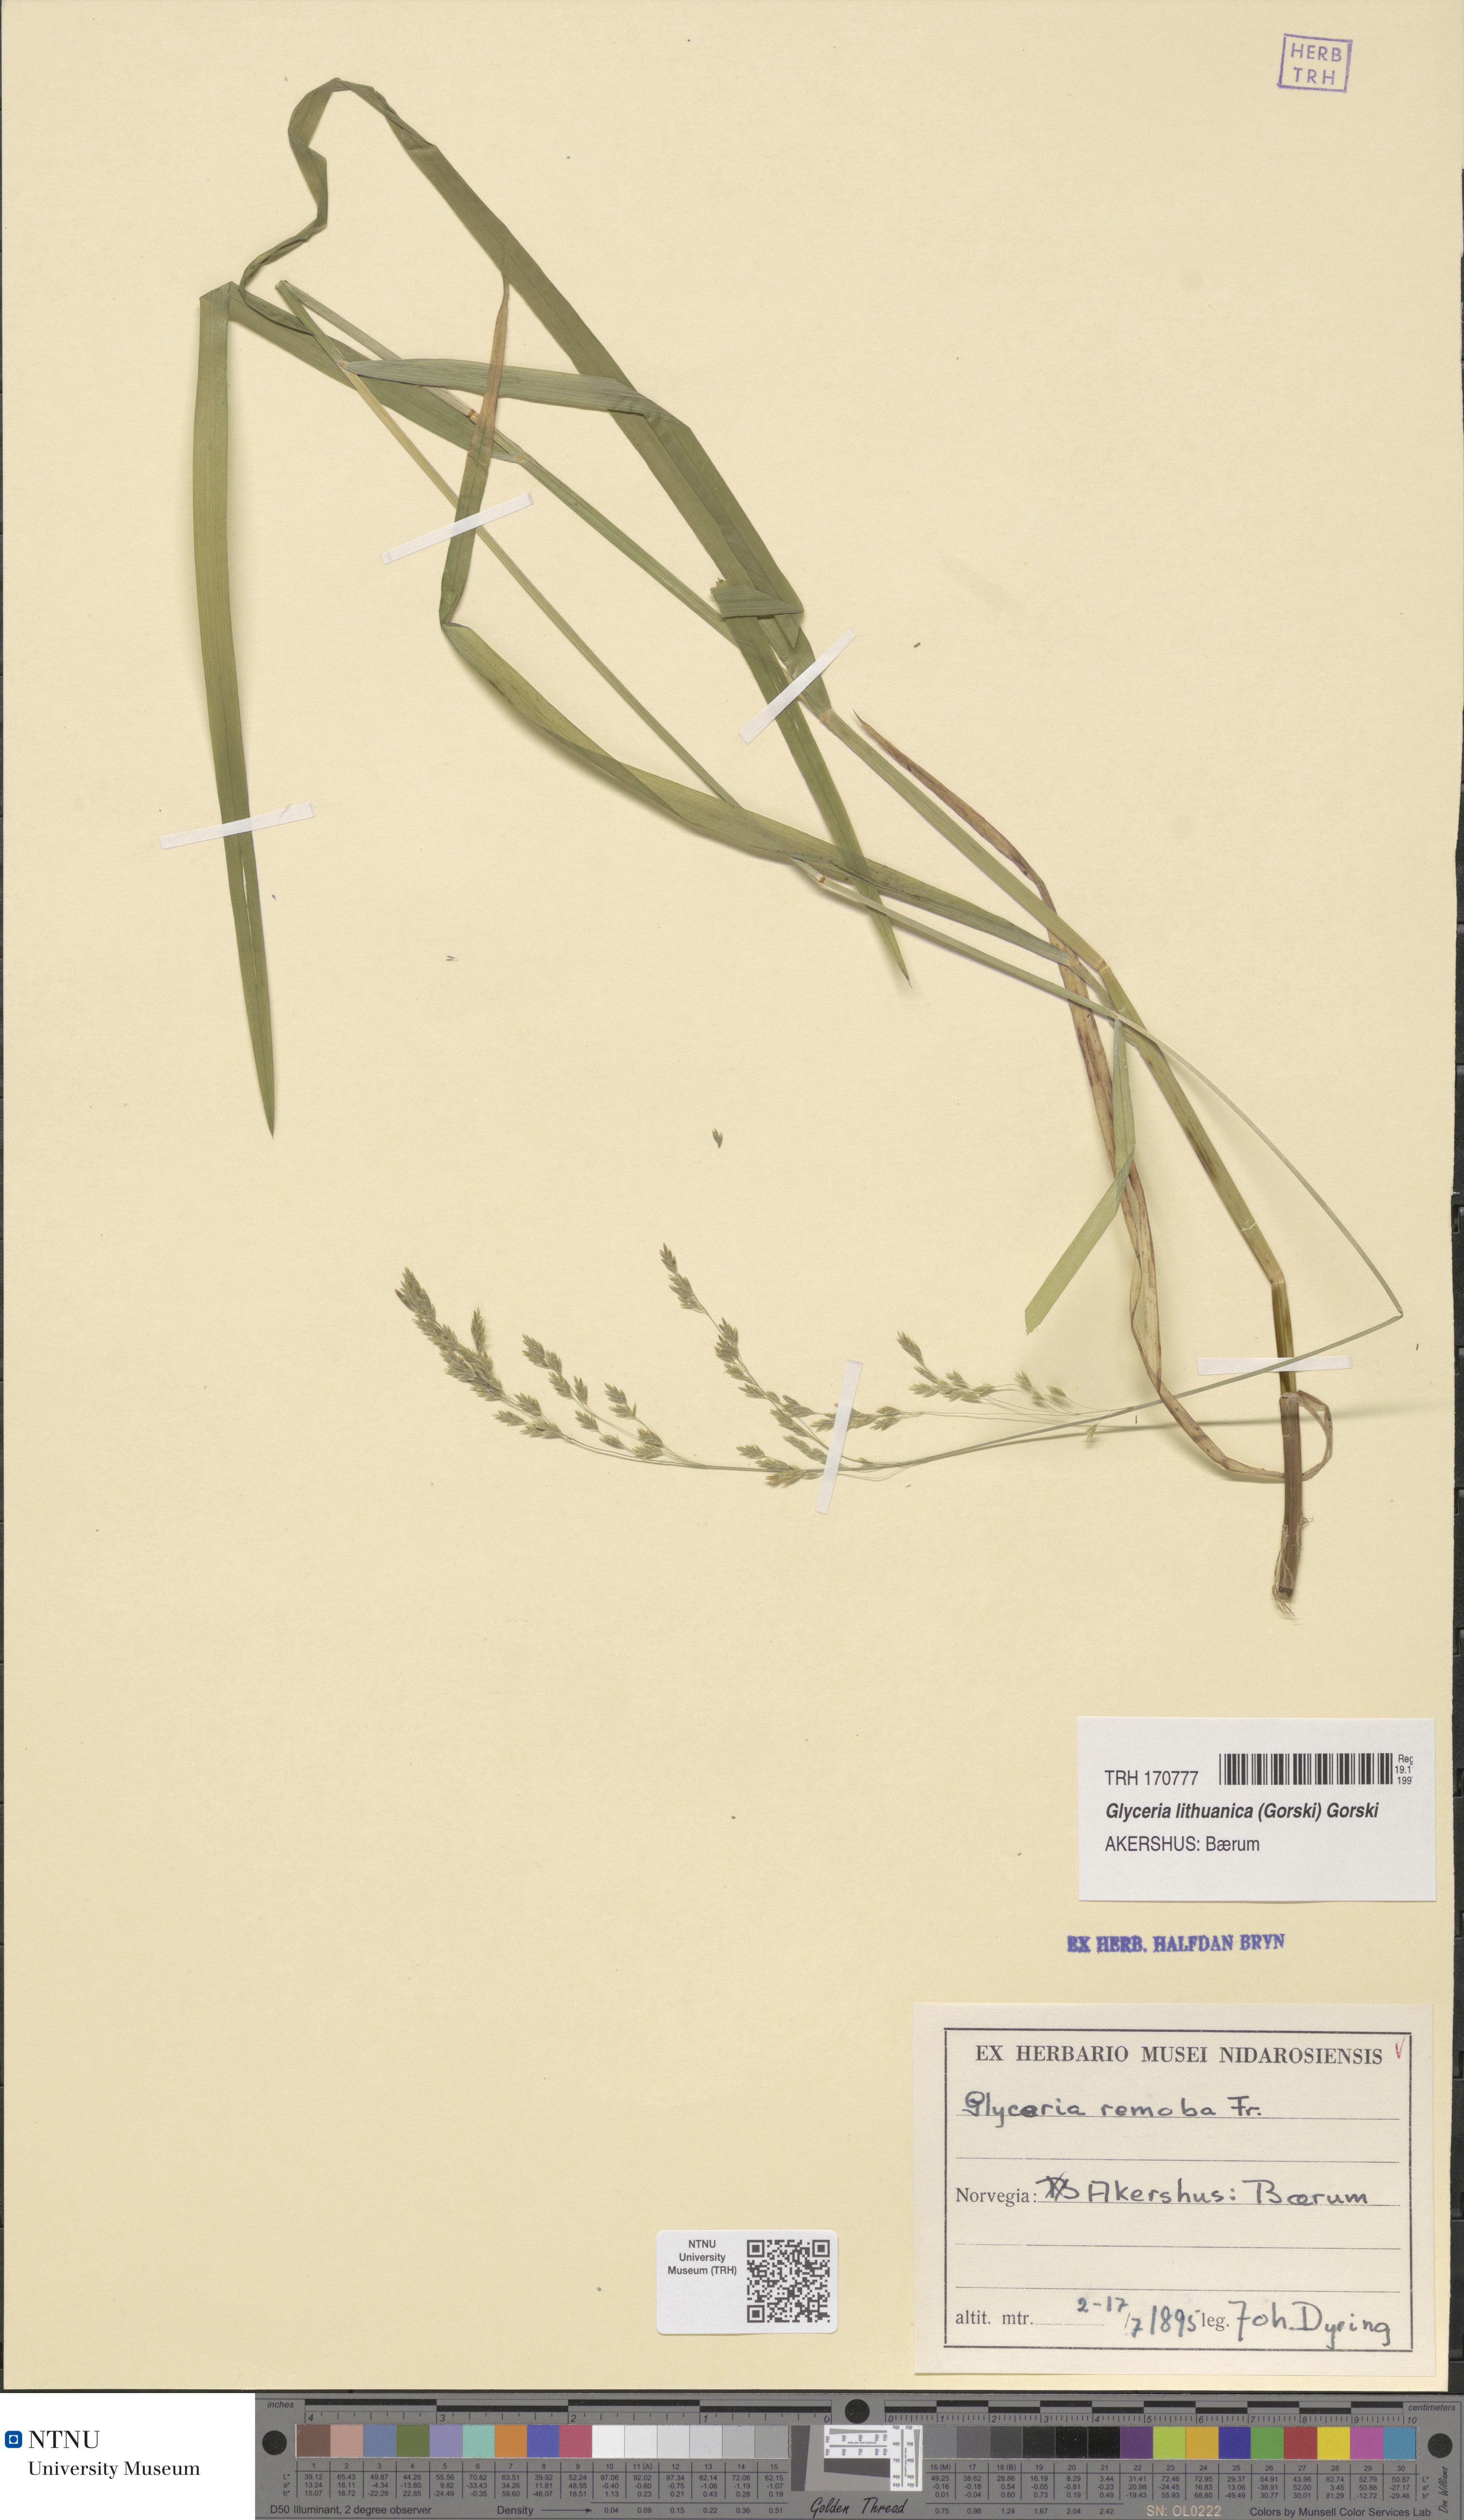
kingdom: Plantae
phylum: Tracheophyta
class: Liliopsida
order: Poales
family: Poaceae
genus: Glyceria
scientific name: Glyceria lithuanica
